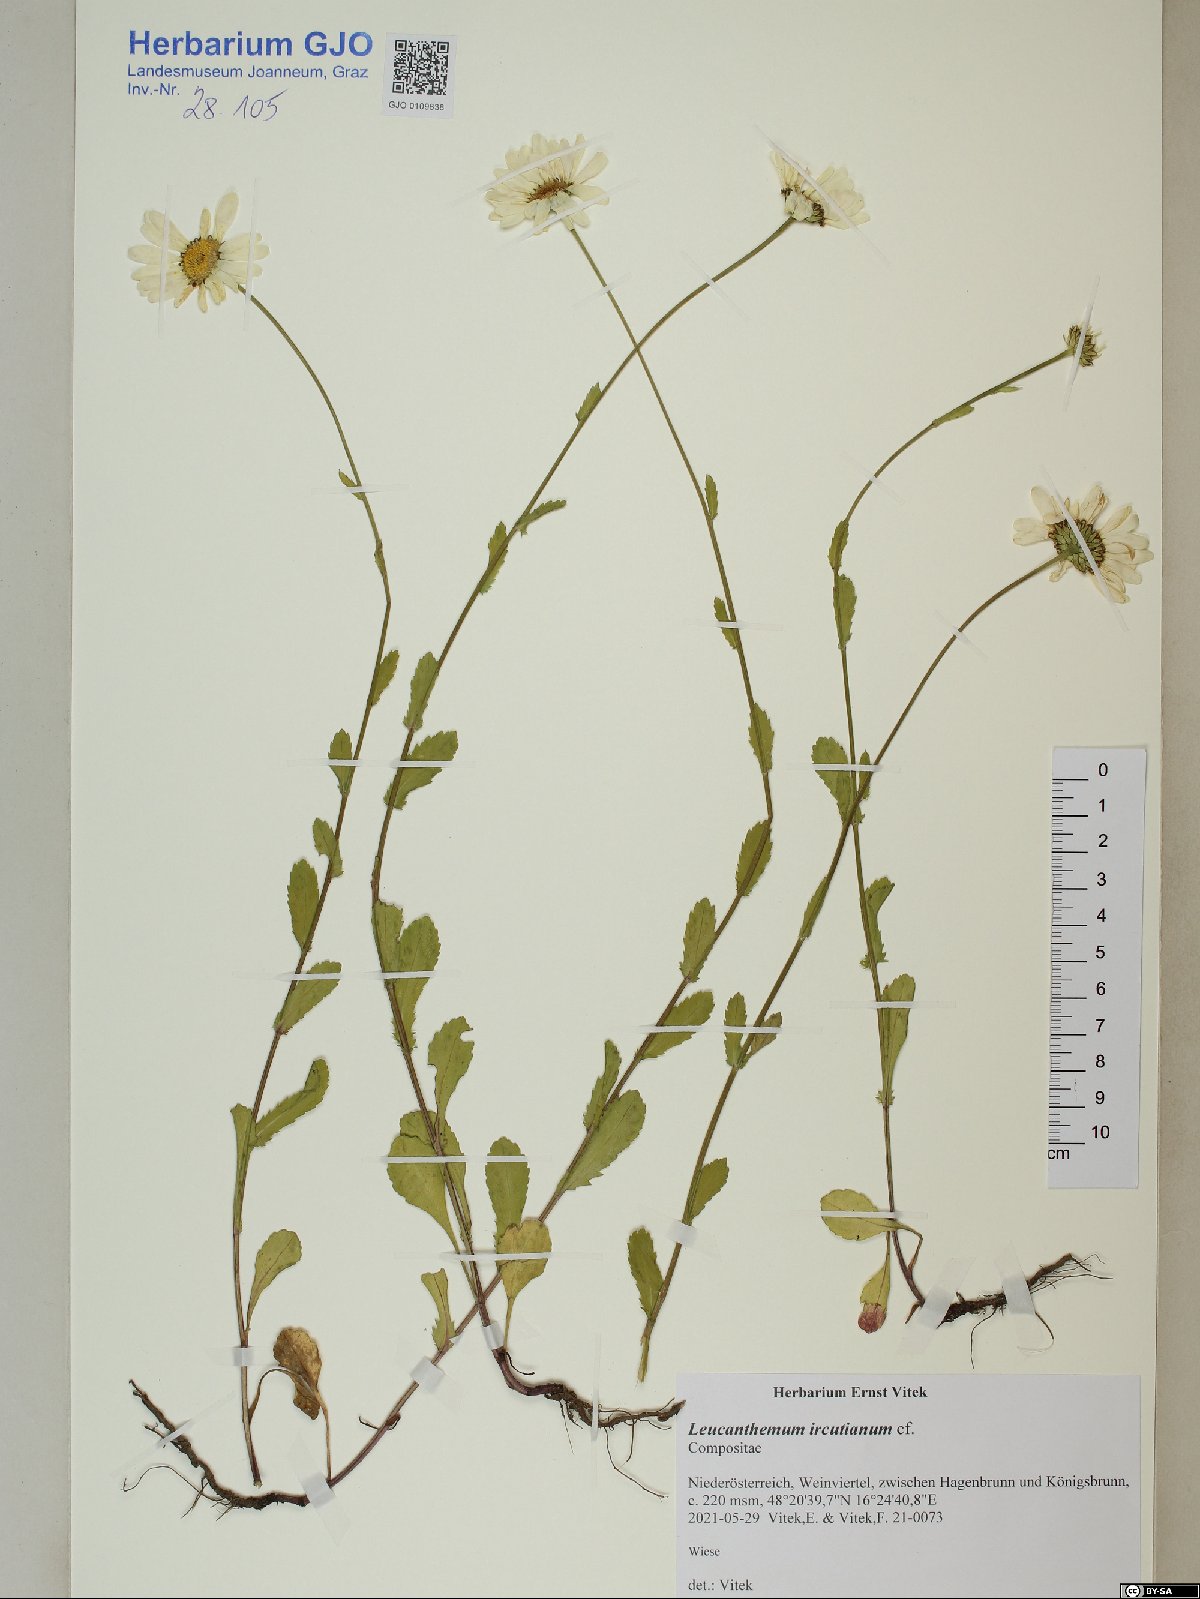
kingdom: Plantae
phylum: Tracheophyta
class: Magnoliopsida
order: Asterales
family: Asteraceae
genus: Leucanthemum
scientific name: Leucanthemum ircutianum
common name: Daisy
